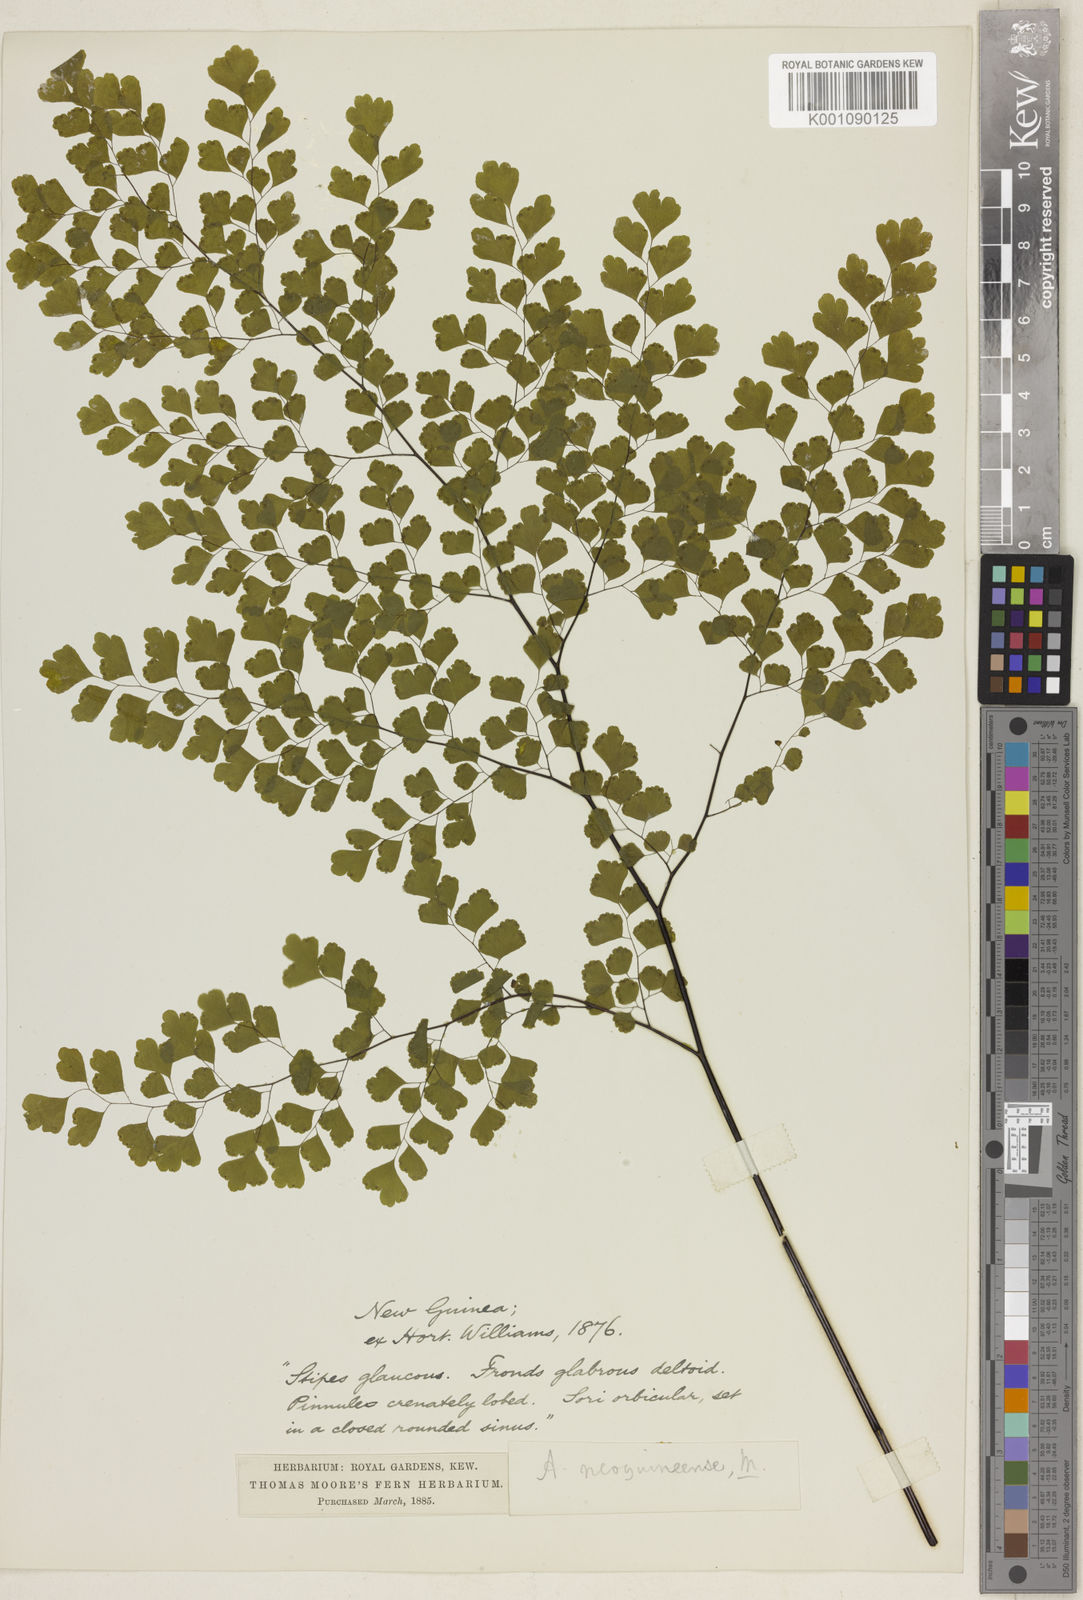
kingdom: Plantae
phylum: Tracheophyta
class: Polypodiopsida
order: Polypodiales
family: Pteridaceae
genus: Adiantum
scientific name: Adiantum neoguineense
